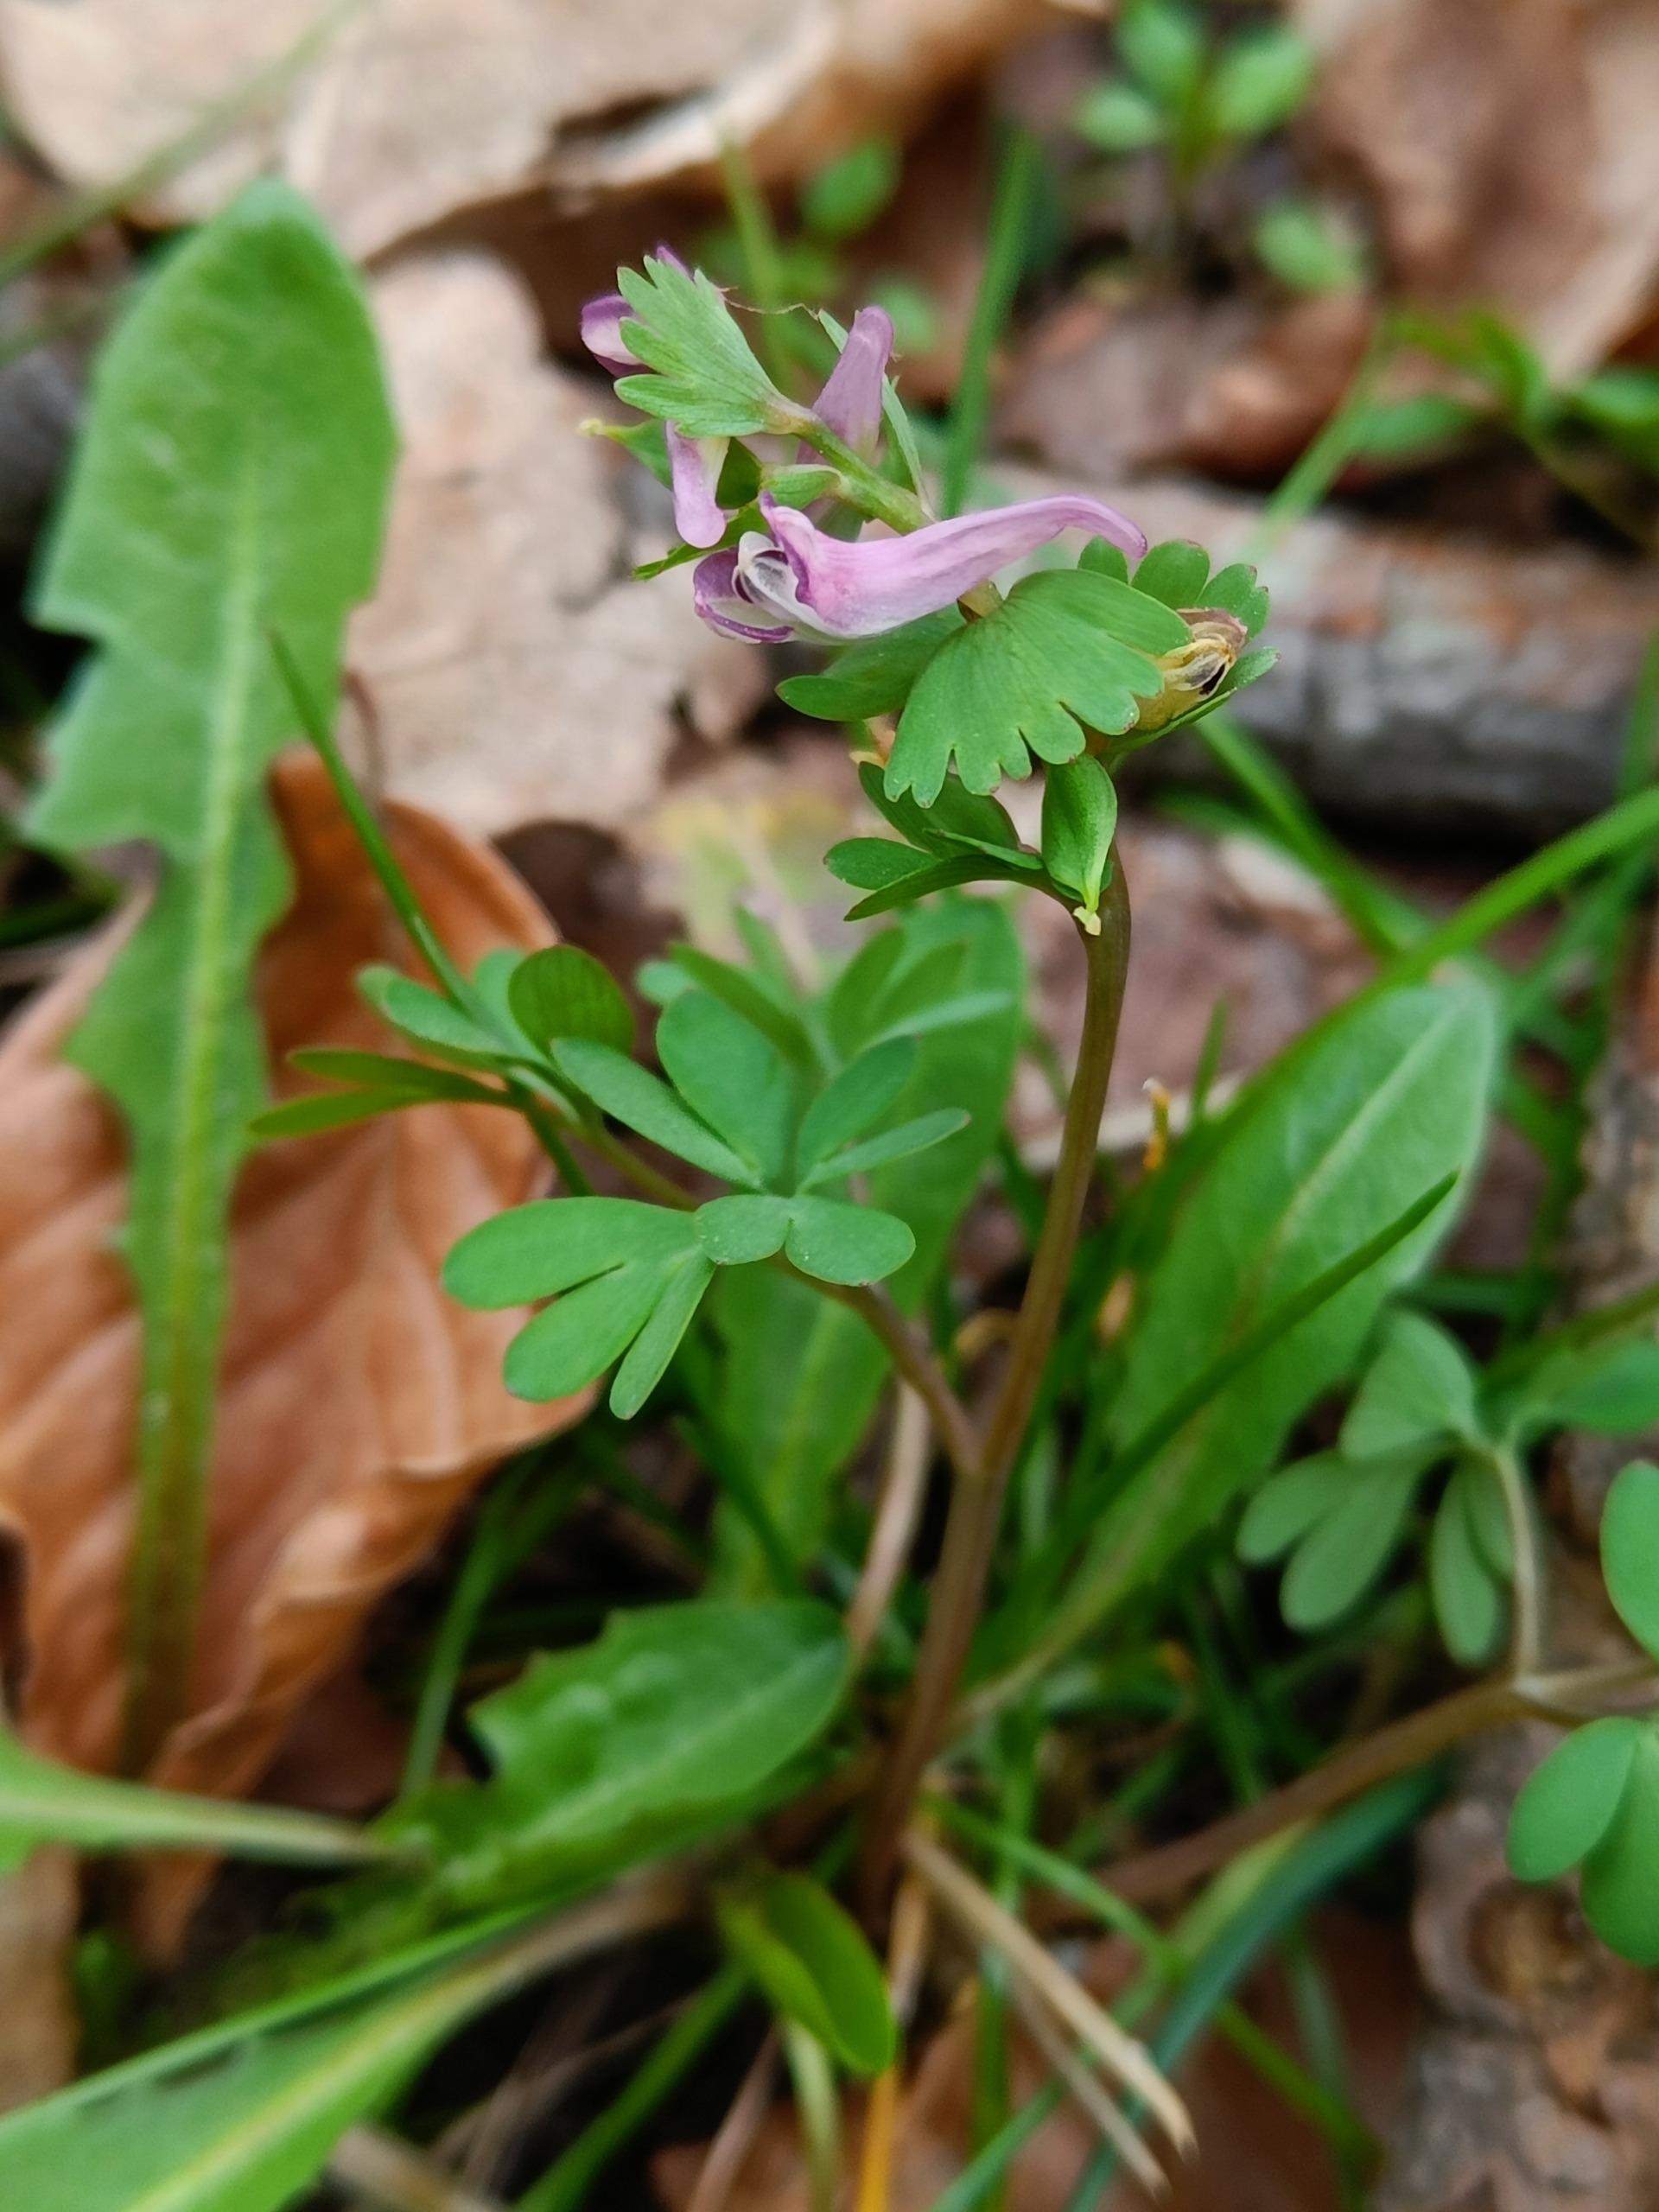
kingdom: Plantae
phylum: Tracheophyta
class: Magnoliopsida
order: Ranunculales
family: Papaveraceae
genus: Corydalis
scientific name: Corydalis pumila
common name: Finger-lærkespore
